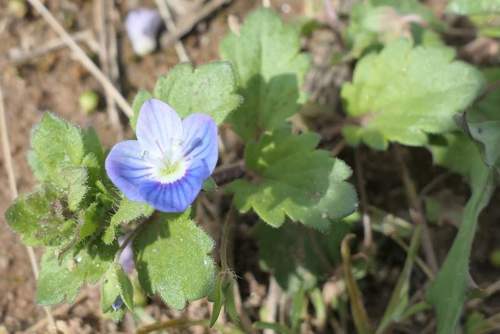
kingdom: Plantae
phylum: Tracheophyta
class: Magnoliopsida
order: Lamiales
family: Plantaginaceae
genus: Veronica
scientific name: Veronica persica
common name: Common field-speedwell
